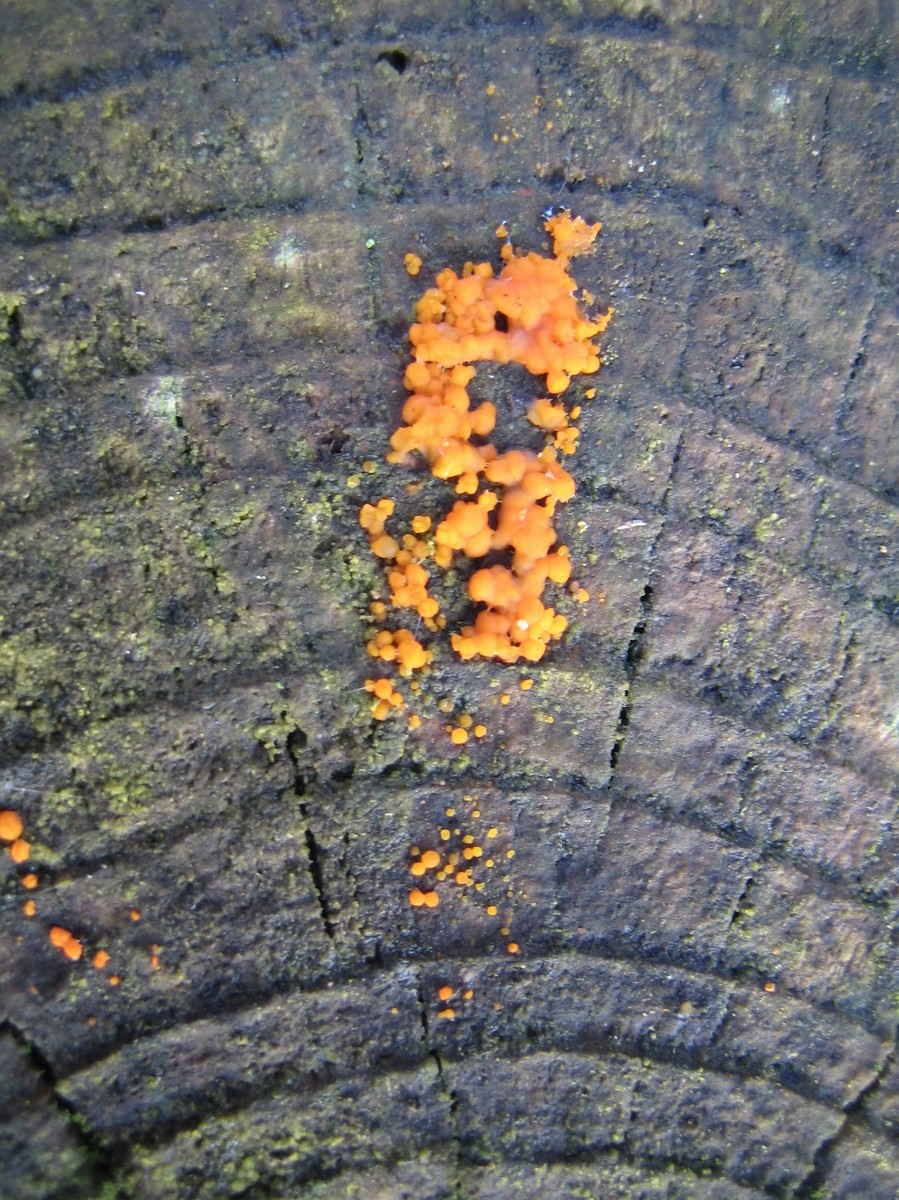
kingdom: Fungi
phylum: Basidiomycota
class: Dacrymycetes
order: Dacrymycetales
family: Dacrymycetaceae
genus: Dacrymyces
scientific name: Dacrymyces stillatus
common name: almindelig tåresvamp
